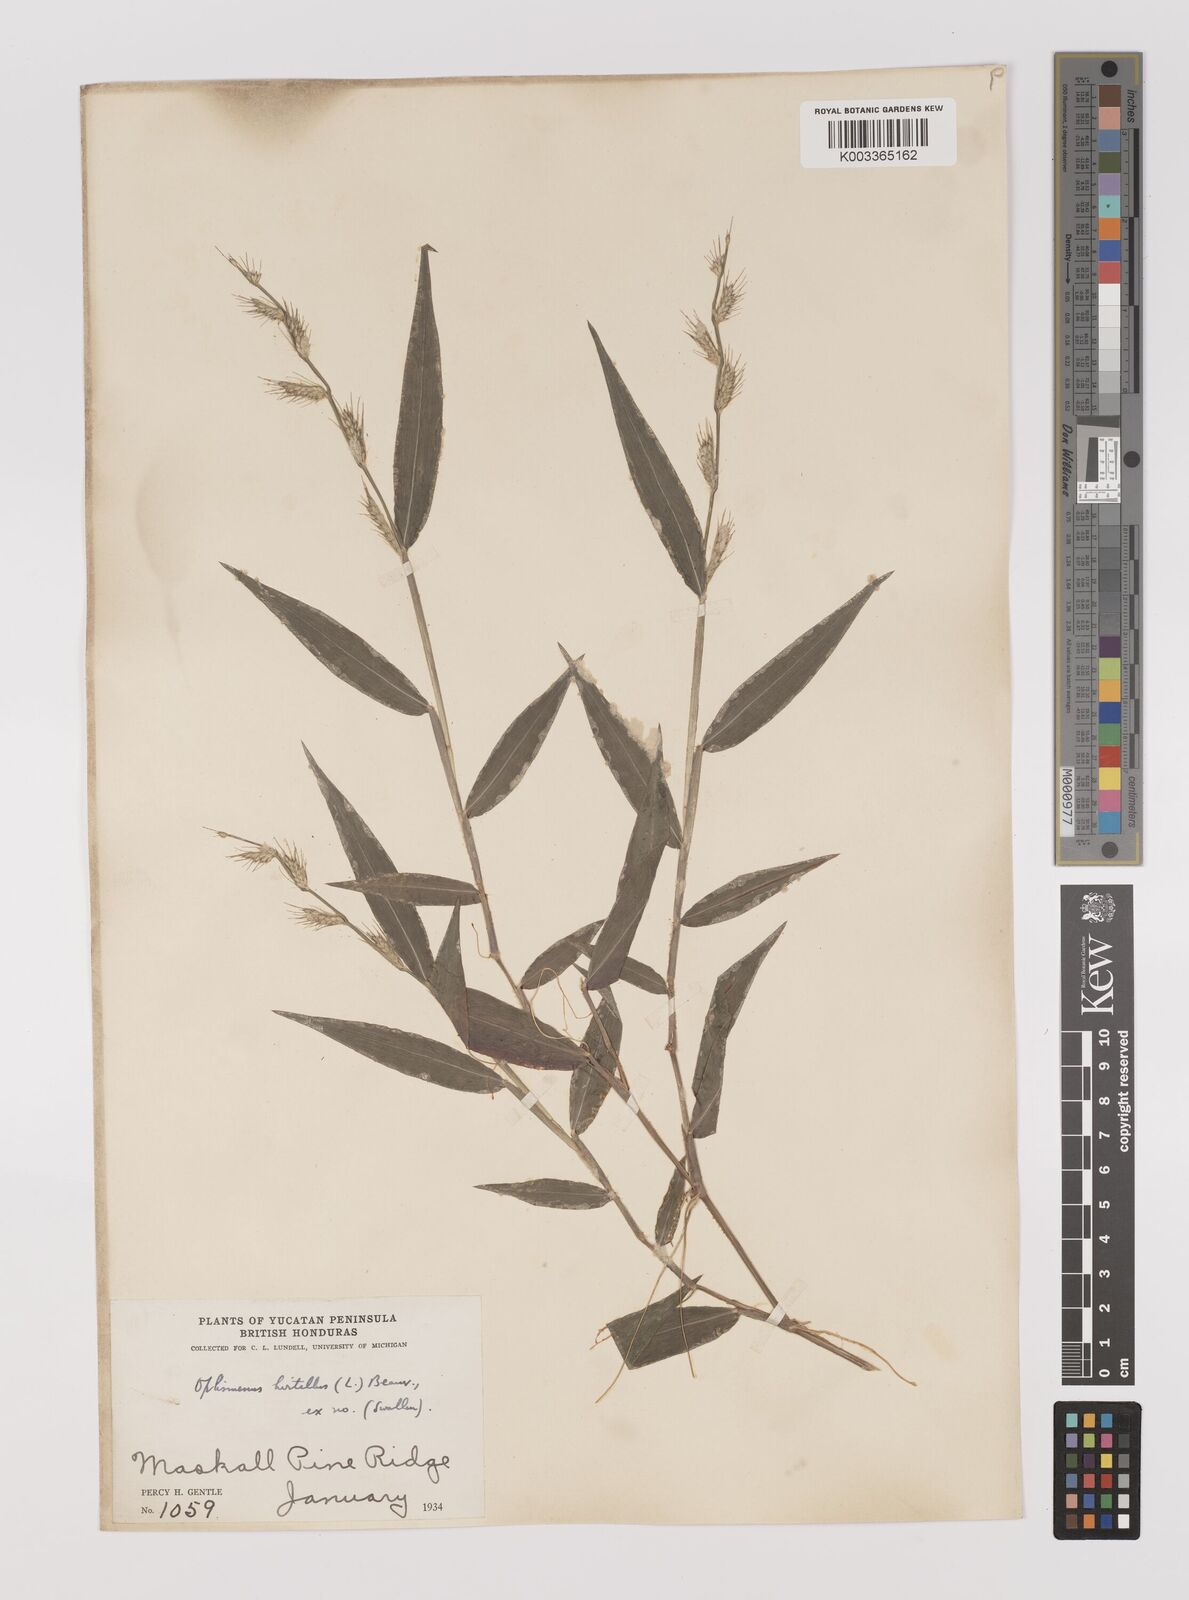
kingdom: Plantae
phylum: Tracheophyta
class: Liliopsida
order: Poales
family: Poaceae
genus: Oplismenus
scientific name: Oplismenus hirtellus
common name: Basketgrass
